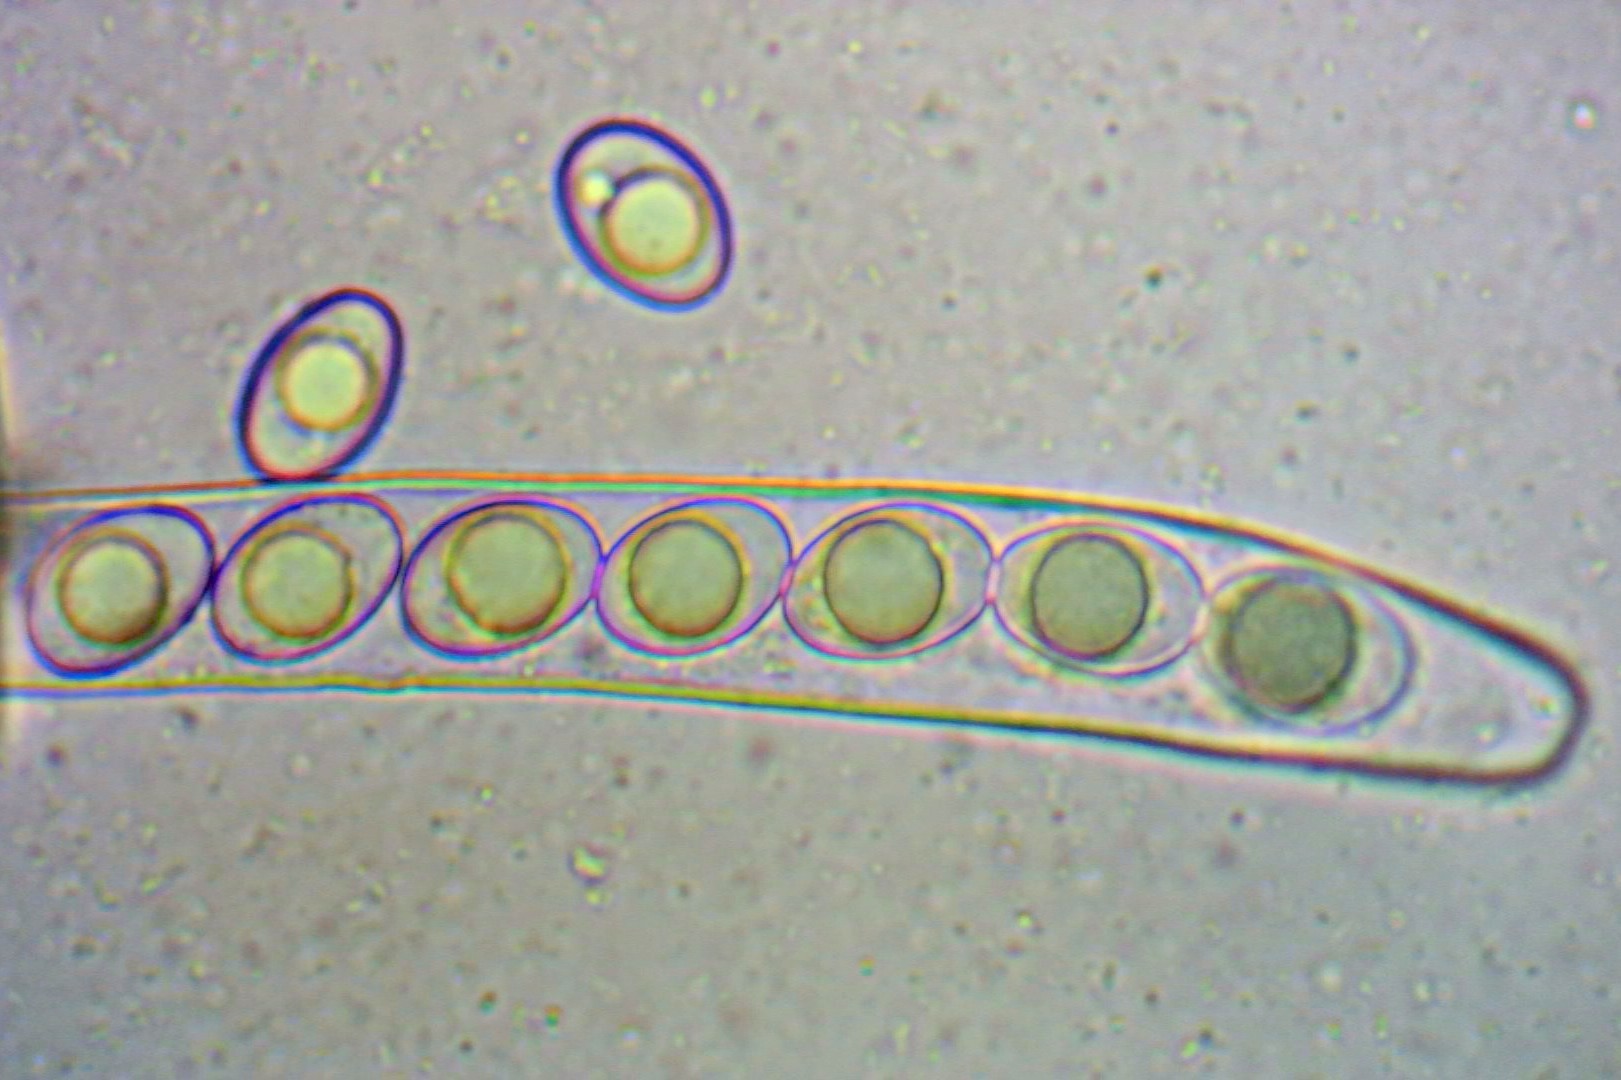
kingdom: Fungi
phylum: Ascomycota
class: Pezizomycetes
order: Pezizales
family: Pyronemataceae
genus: Octospora
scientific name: Octospora rustica
